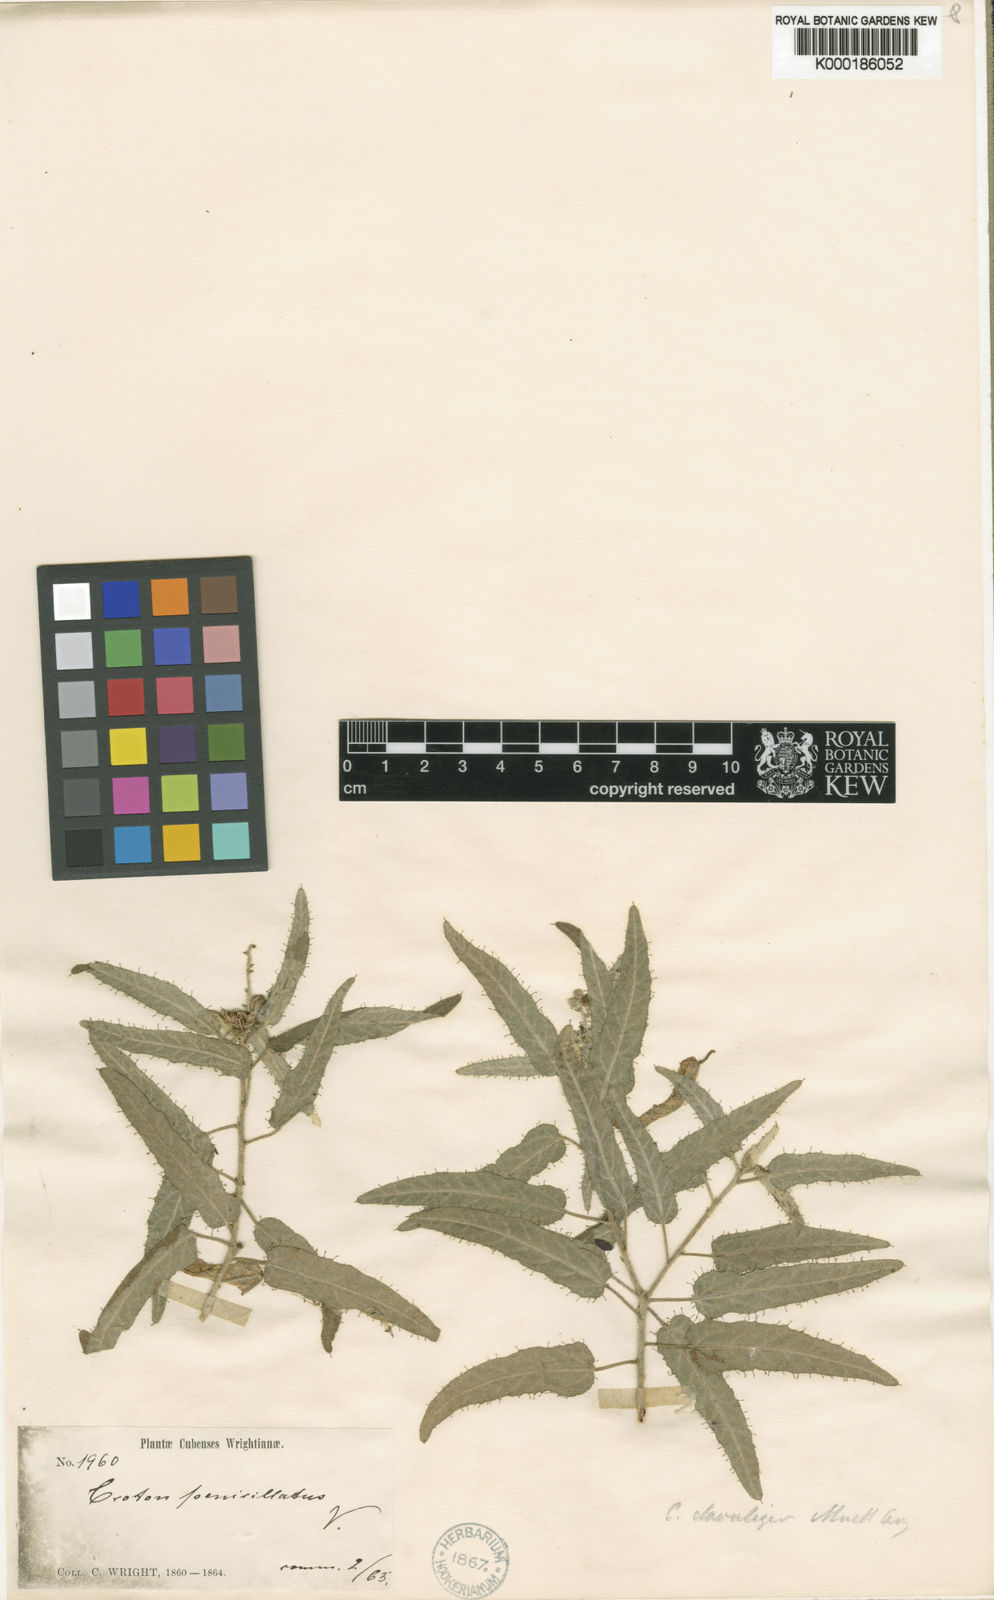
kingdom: Plantae
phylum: Tracheophyta
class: Magnoliopsida
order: Malpighiales
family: Euphorbiaceae
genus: Croton
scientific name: Croton
